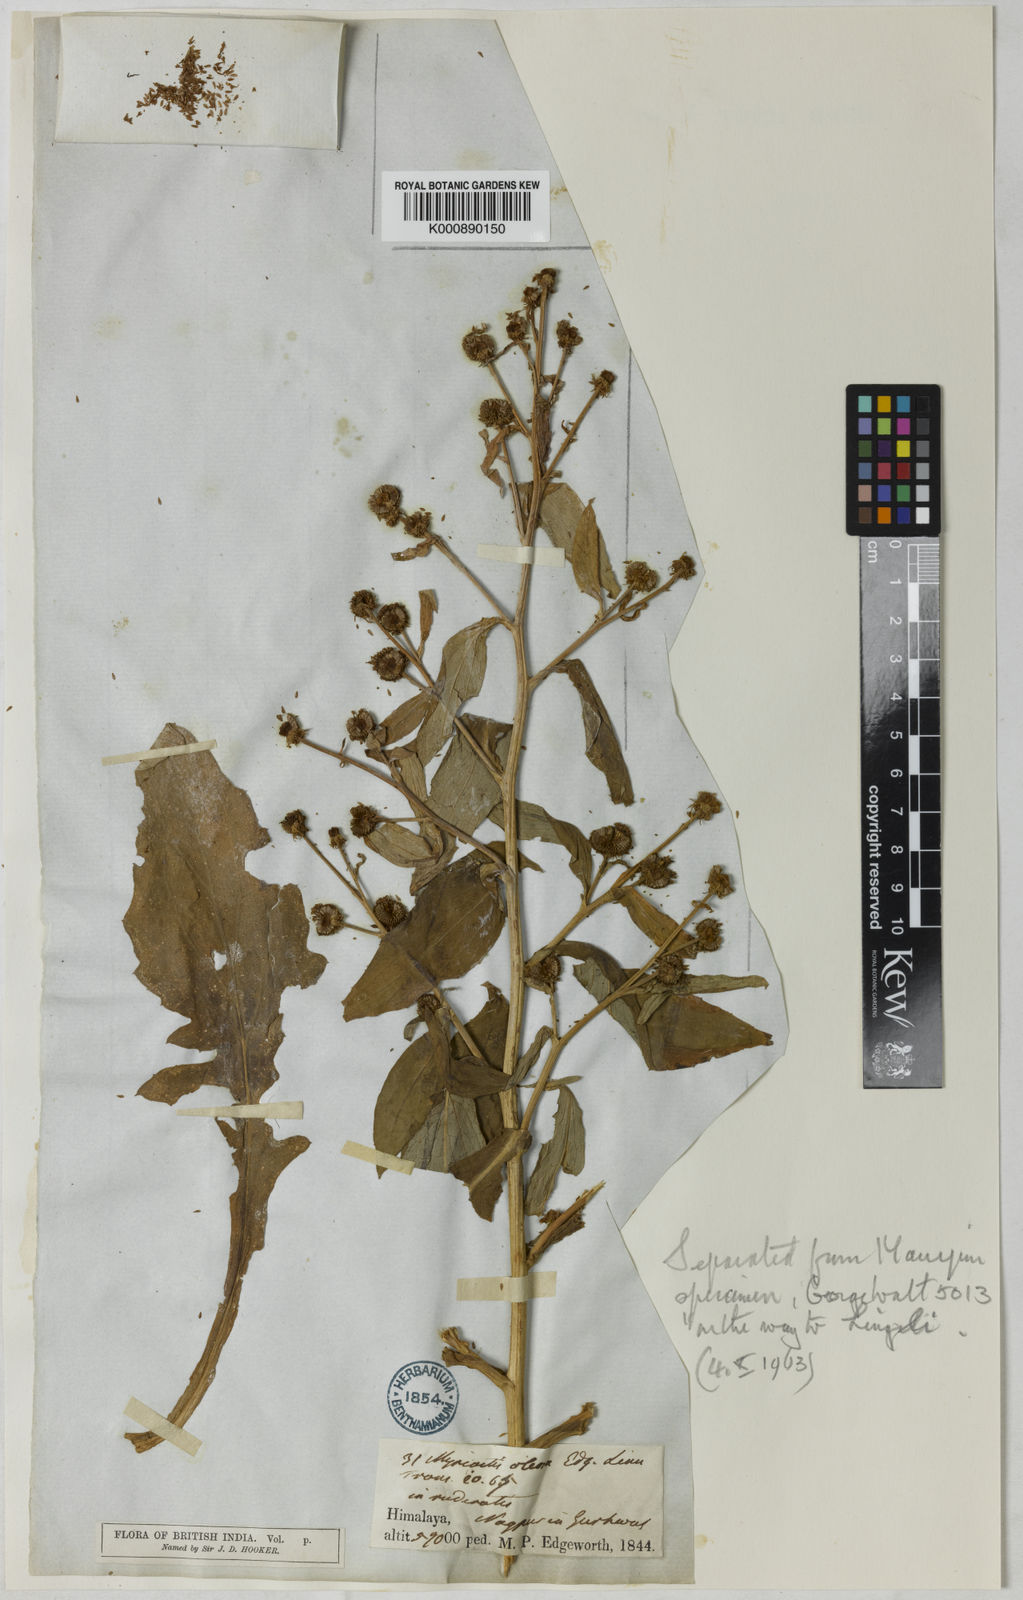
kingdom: Plantae
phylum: Tracheophyta
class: Magnoliopsida
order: Asterales
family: Asteraceae
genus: Myriactis
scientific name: Myriactis
